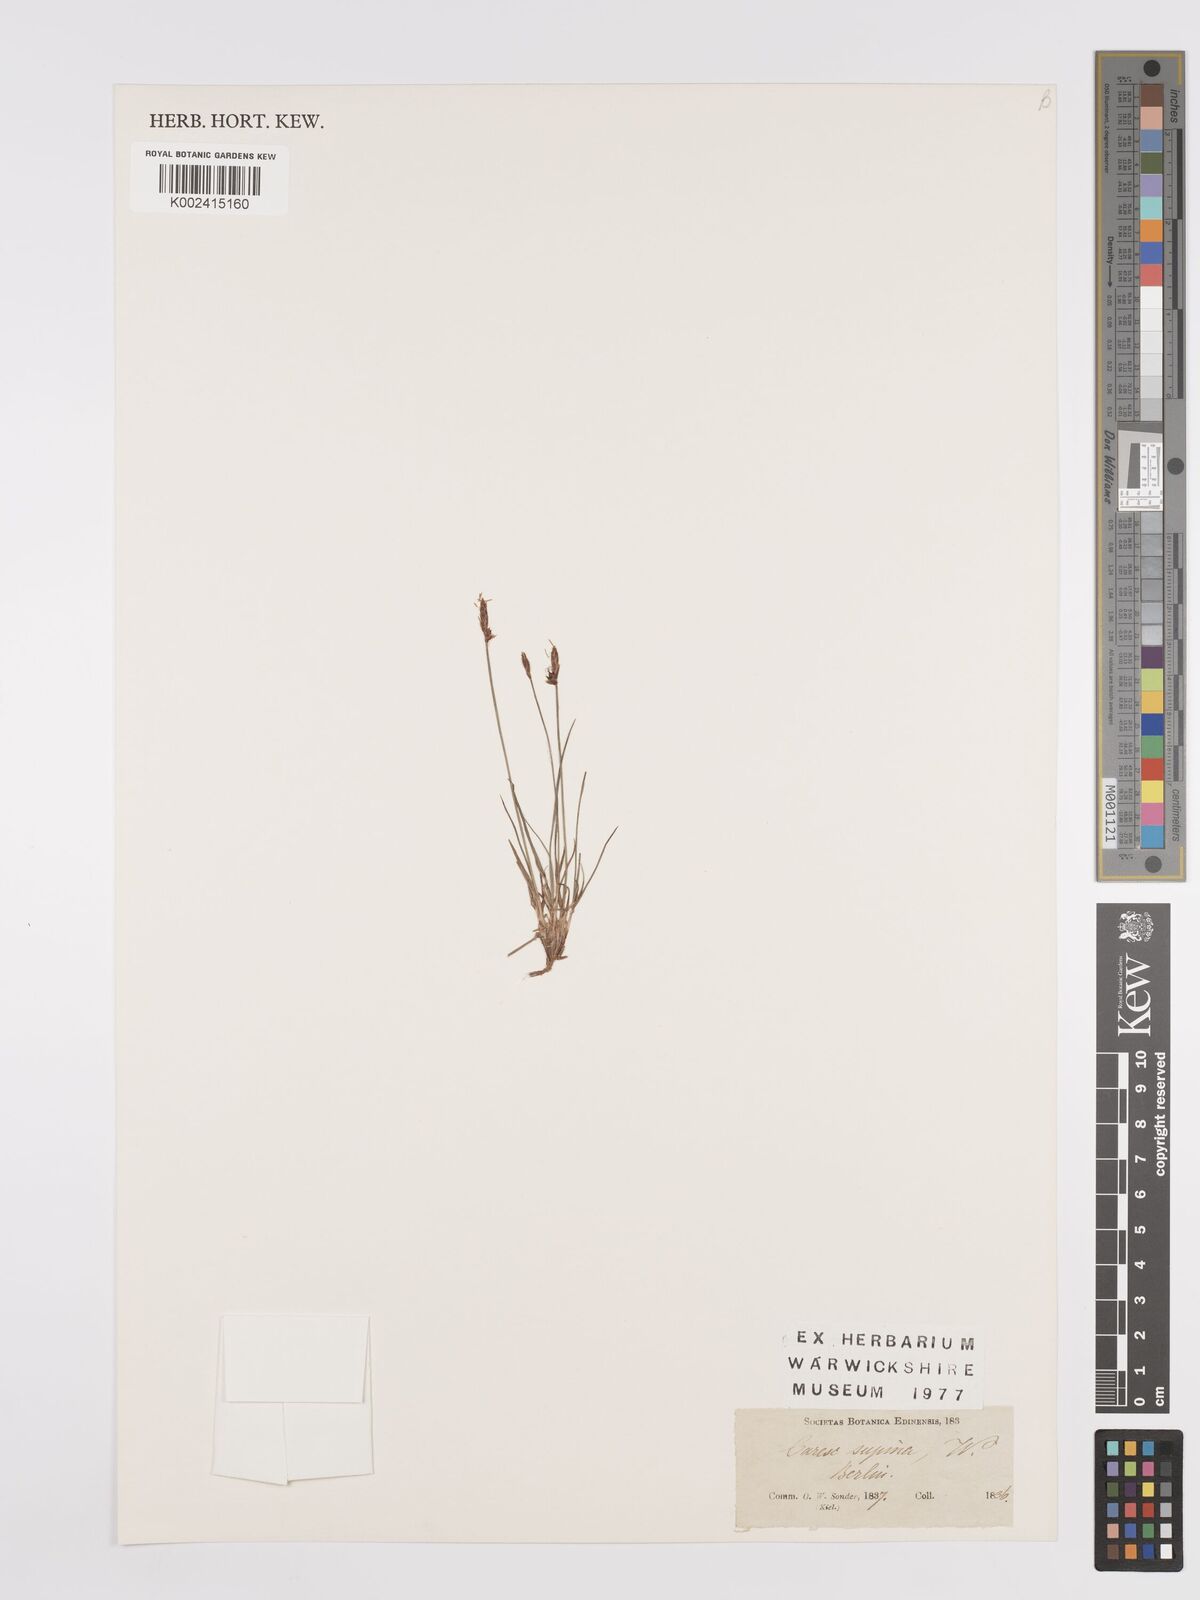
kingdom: Plantae
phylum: Tracheophyta
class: Liliopsida
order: Poales
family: Cyperaceae
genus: Carex
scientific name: Carex rupestris
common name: Rock sedge
